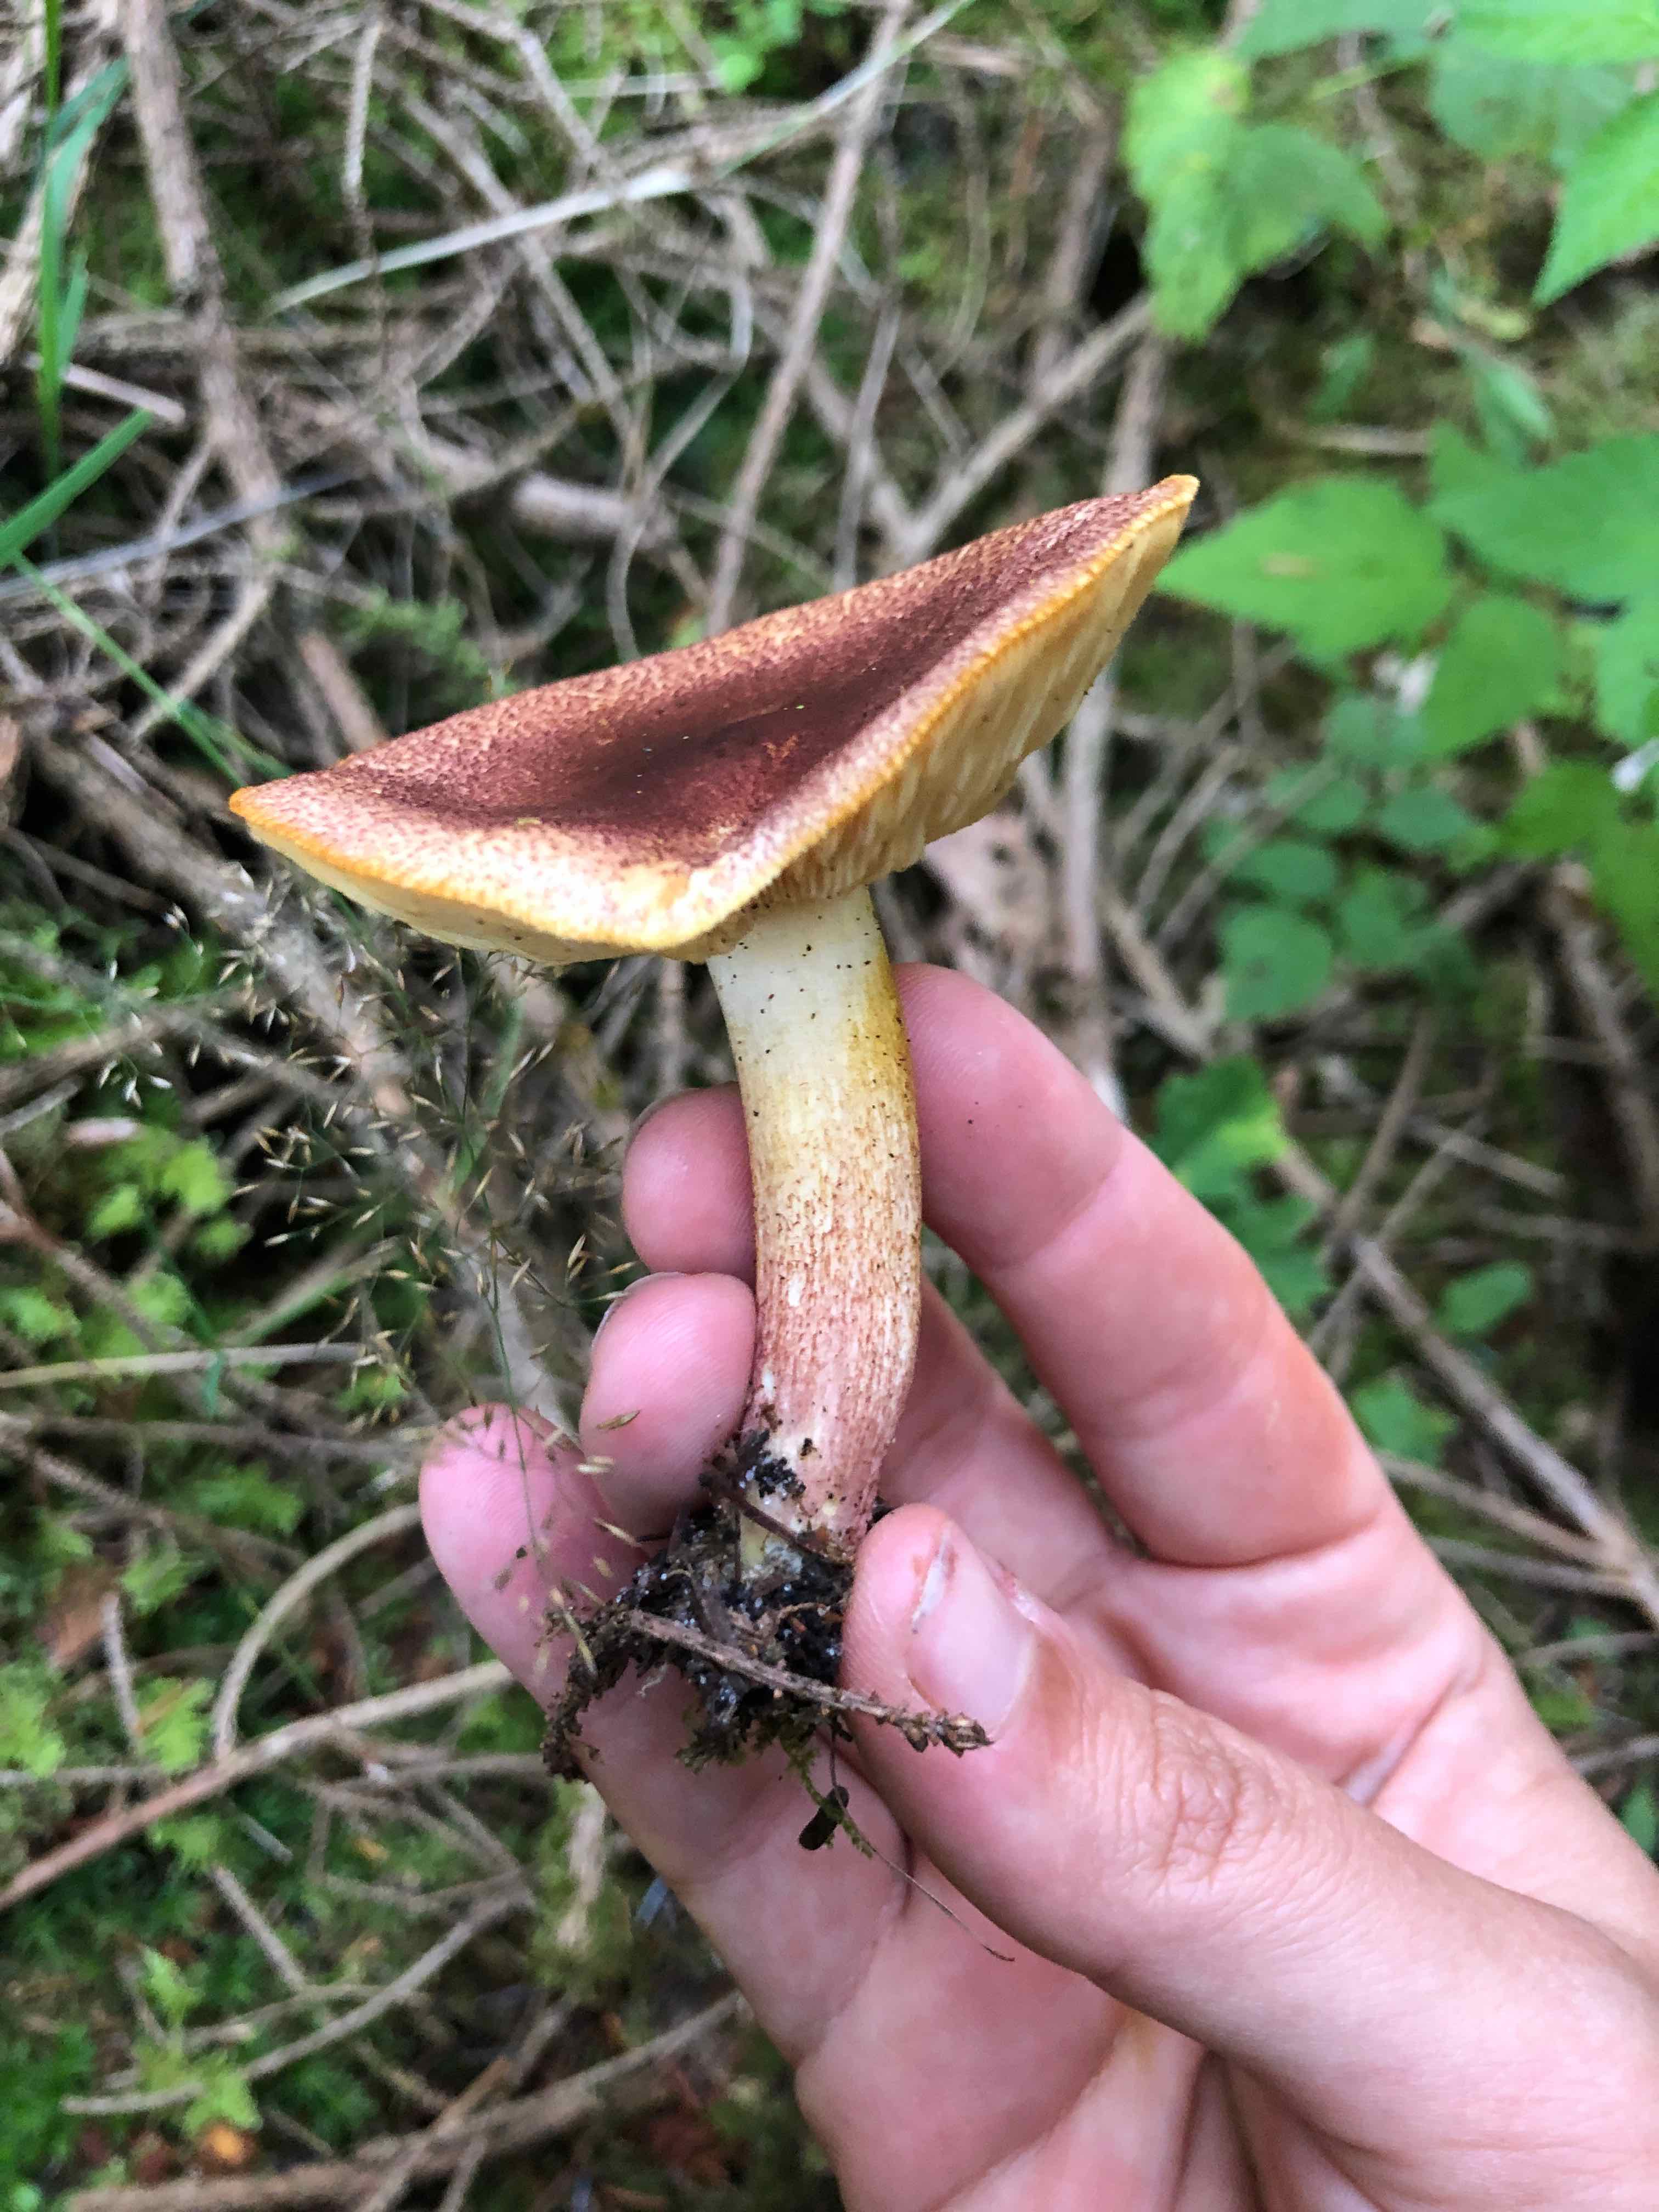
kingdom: Fungi
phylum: Basidiomycota
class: Agaricomycetes
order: Agaricales
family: Tricholomataceae
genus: Tricholomopsis
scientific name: Tricholomopsis rutilans
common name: purpur-væbnerhat
